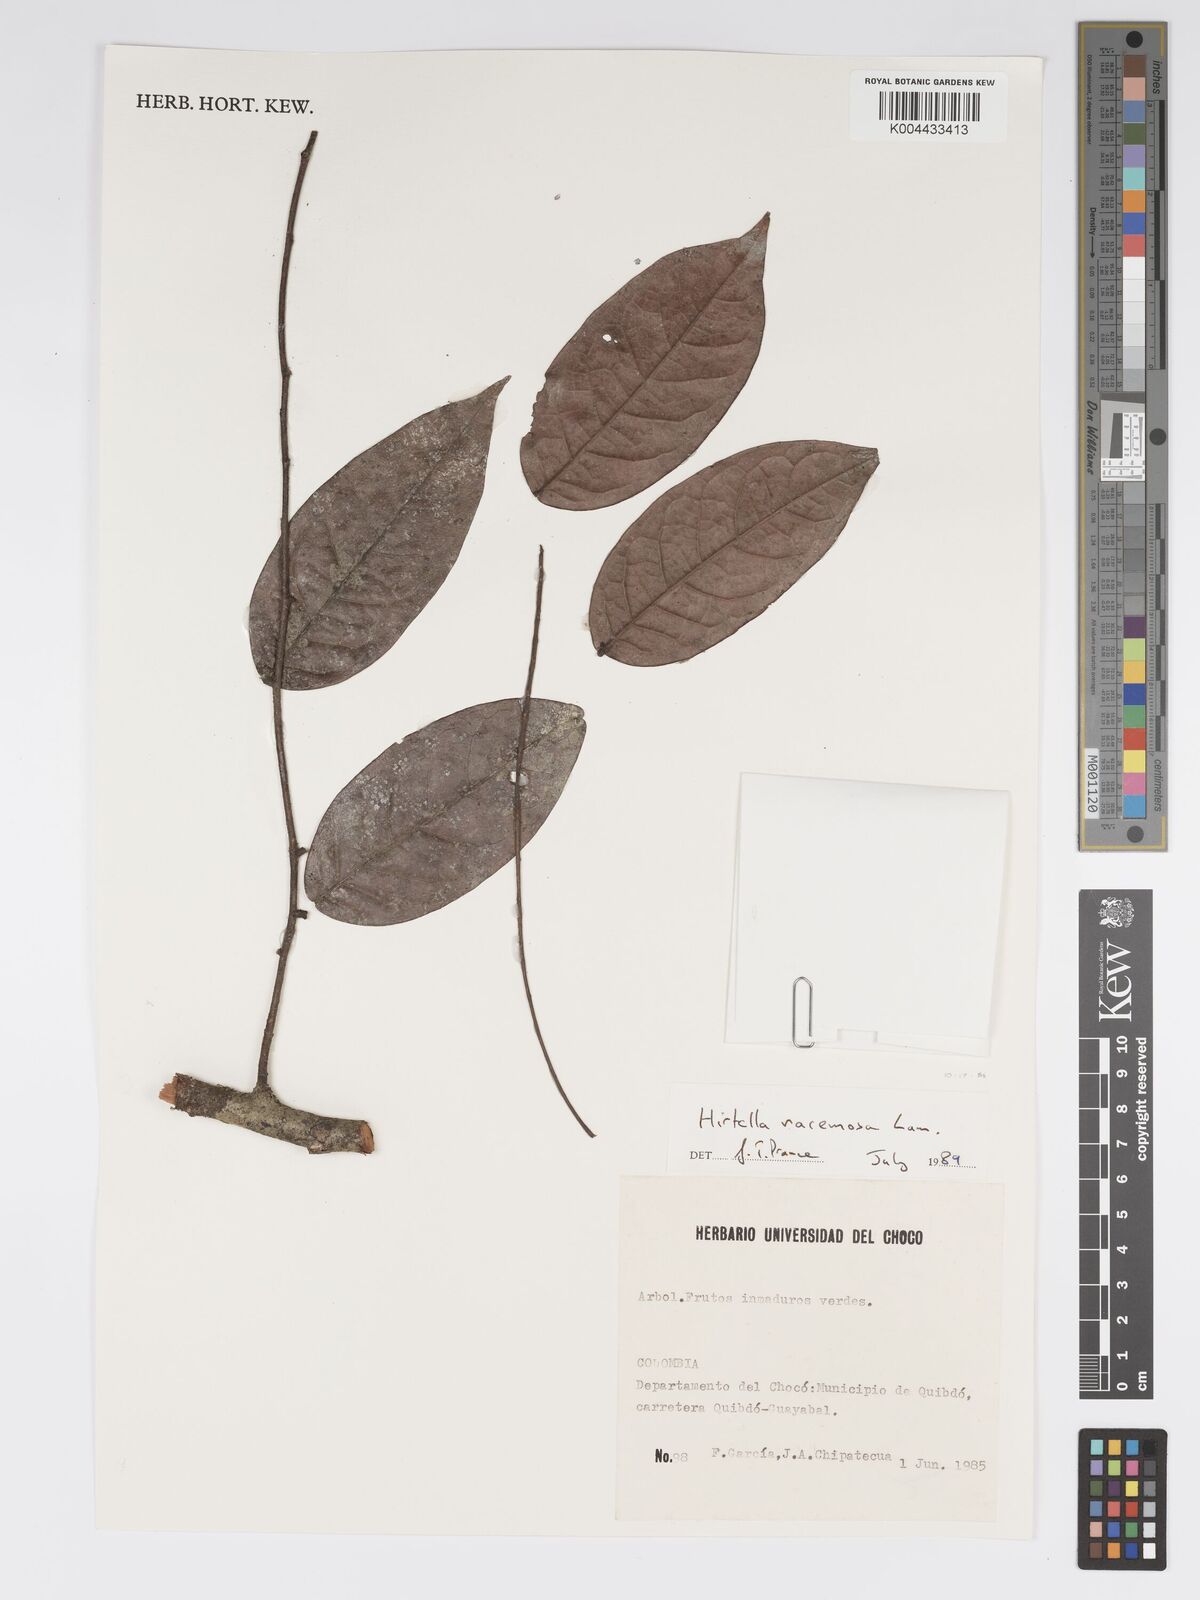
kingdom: Plantae
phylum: Tracheophyta
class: Magnoliopsida
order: Malpighiales
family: Chrysobalanaceae
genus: Hirtella
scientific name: Hirtella racemosa
